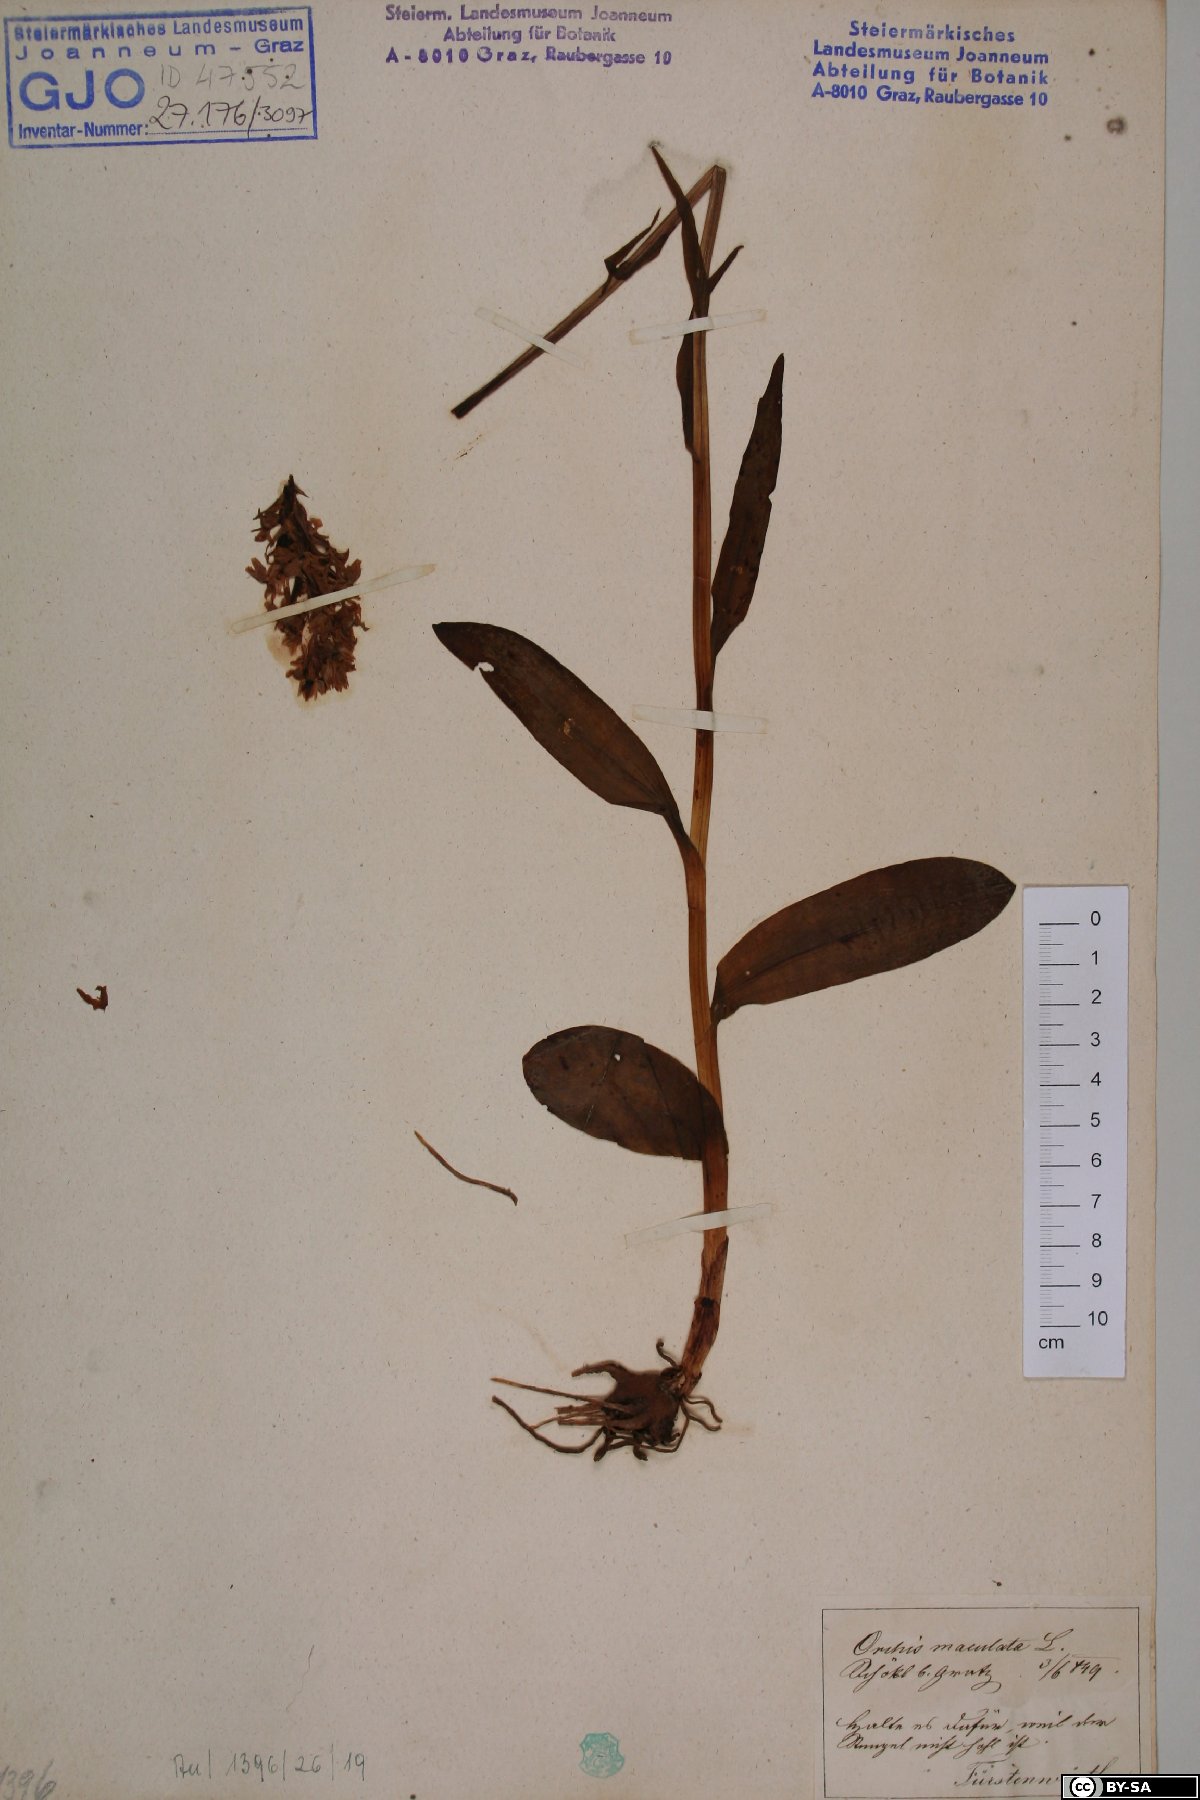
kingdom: Plantae
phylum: Tracheophyta
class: Liliopsida
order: Asparagales
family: Orchidaceae
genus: Dactylorhiza
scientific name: Dactylorhiza maculata
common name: Heath spotted-orchid
